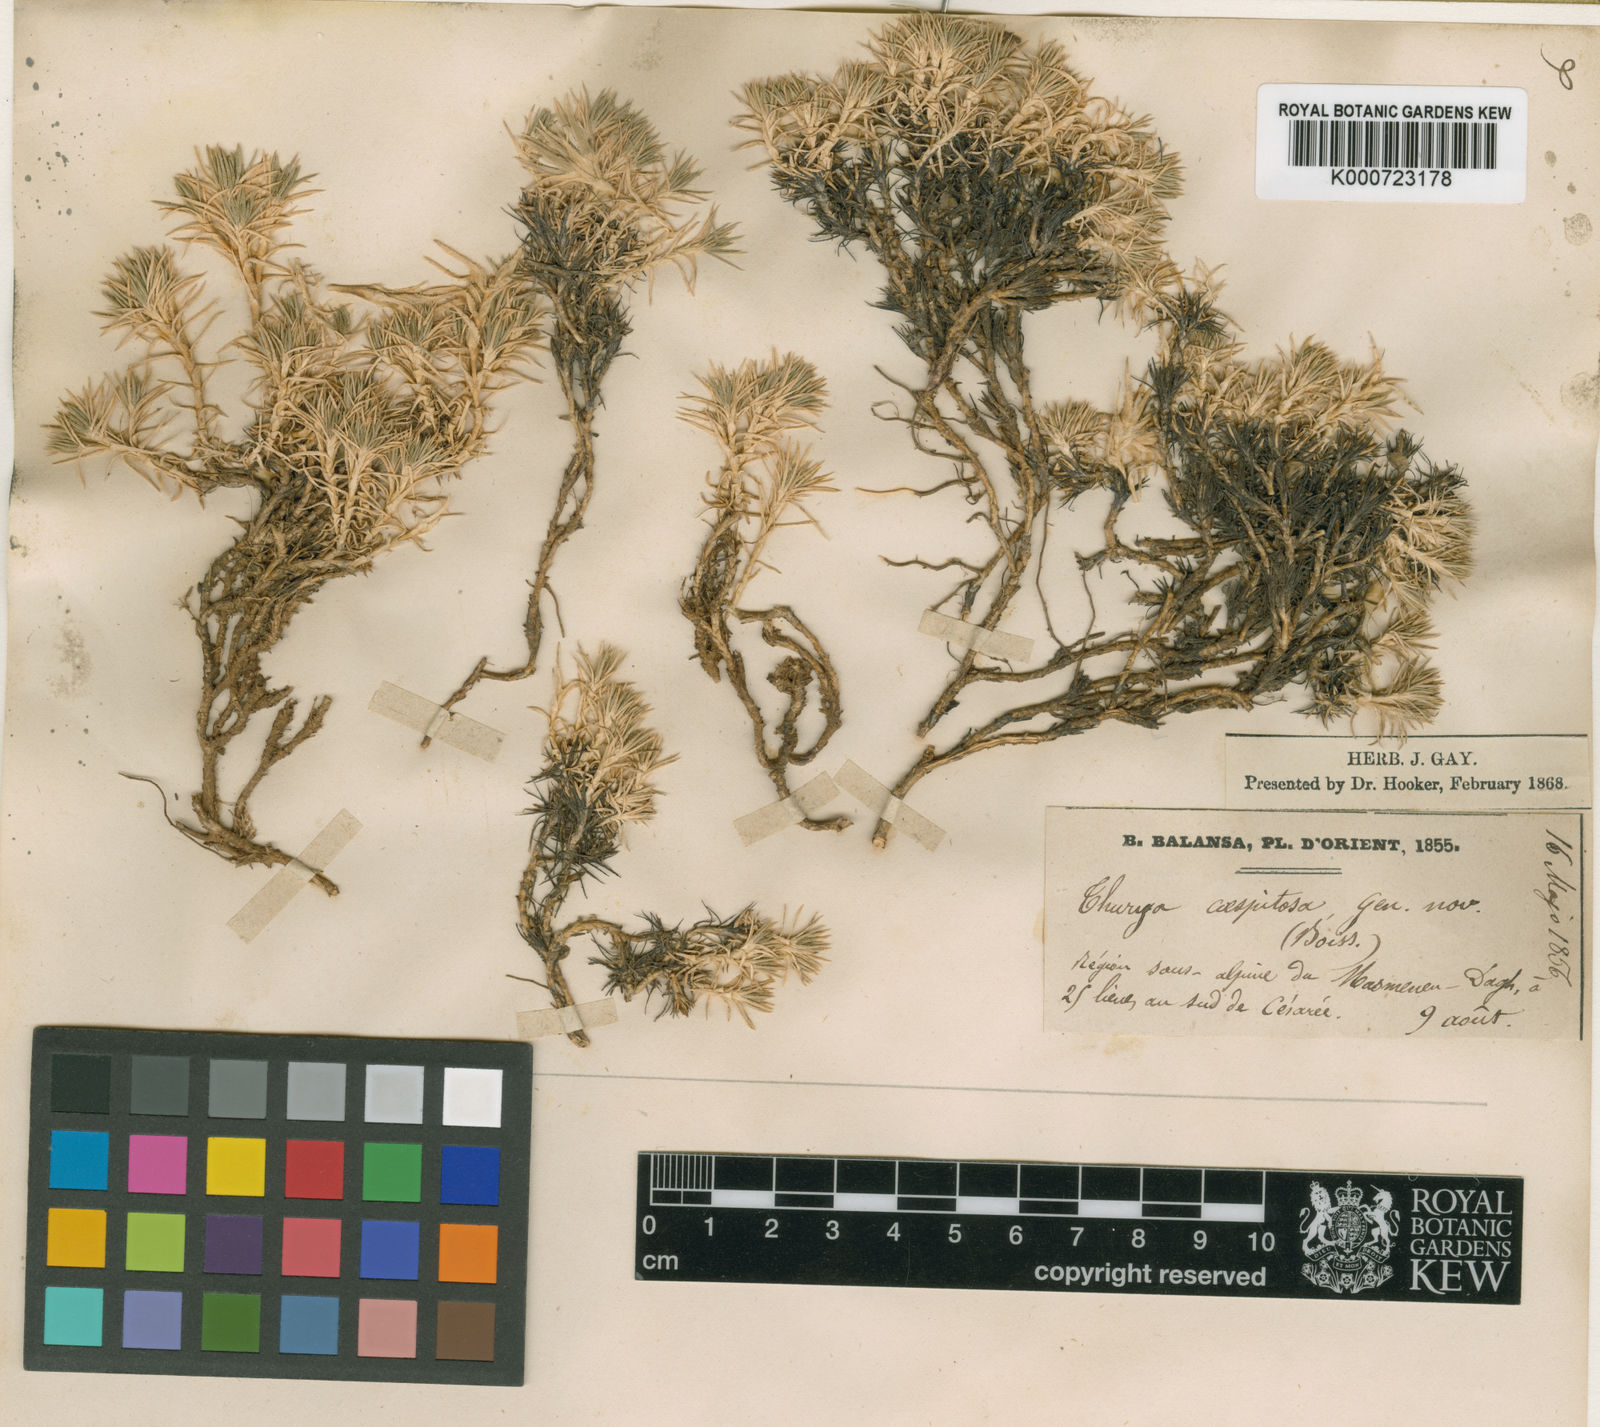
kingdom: Plantae
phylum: Tracheophyta
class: Magnoliopsida
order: Caryophyllales
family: Caryophyllaceae
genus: Thurya
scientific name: Thurya capitata
